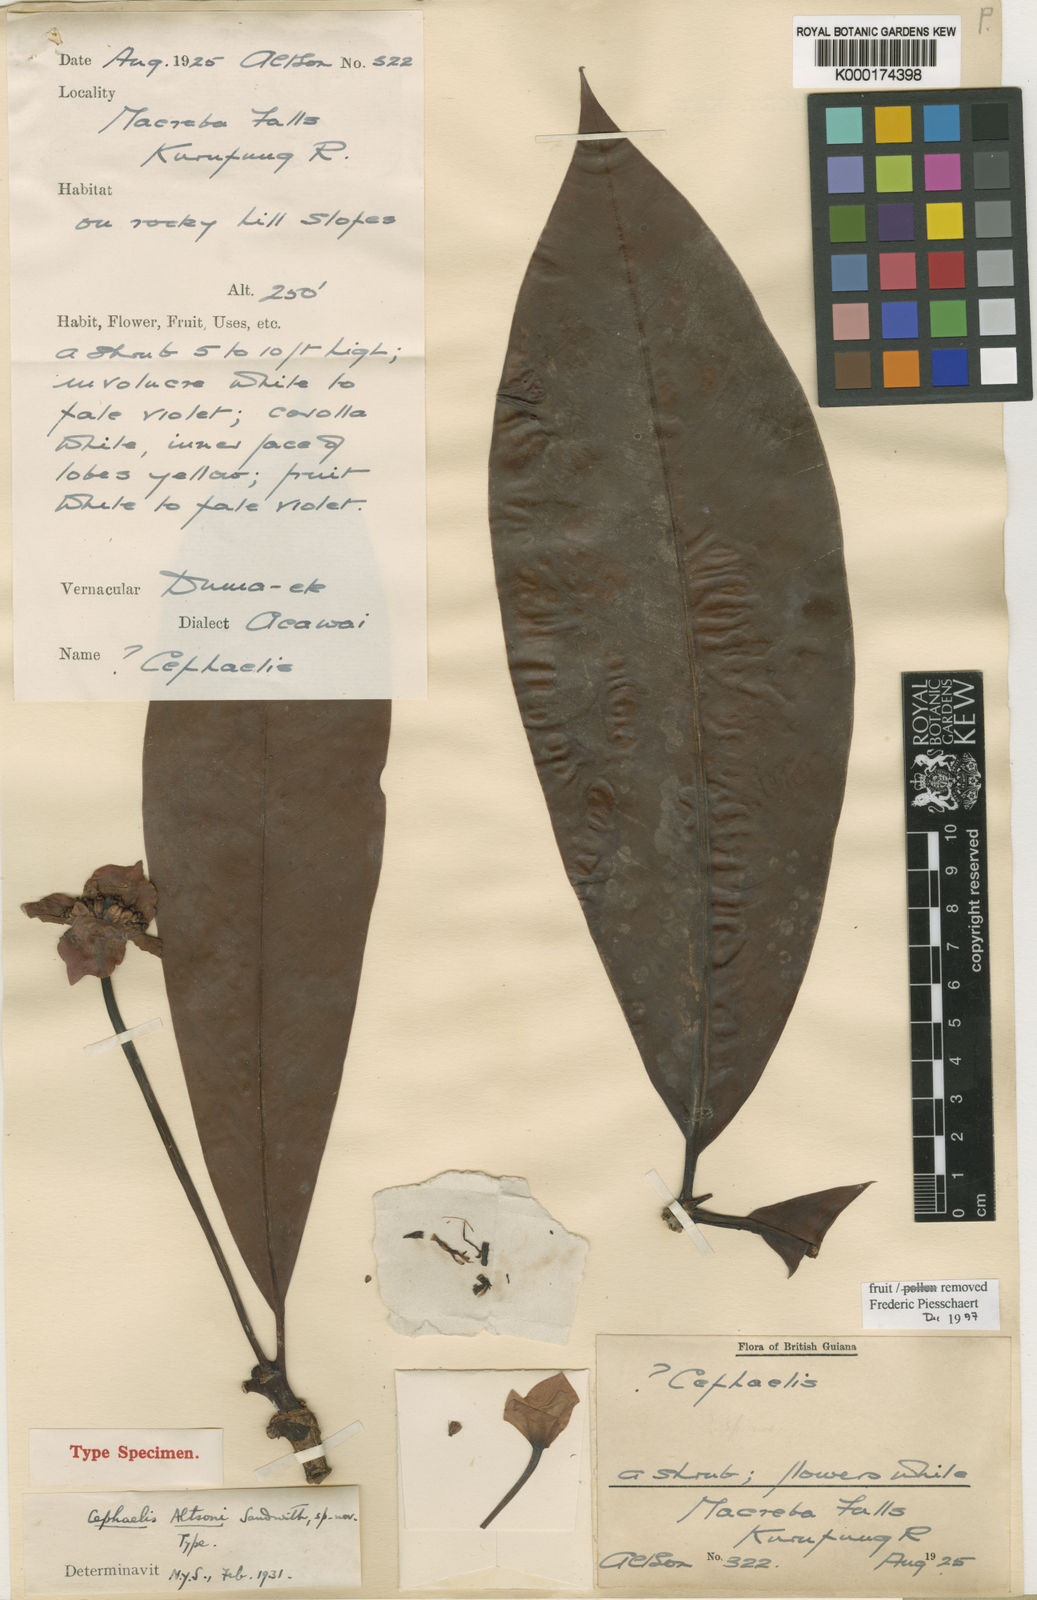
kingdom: Plantae
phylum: Tracheophyta
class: Magnoliopsida
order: Gentianales
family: Rubiaceae
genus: Carapichea
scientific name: Carapichea altsonii
